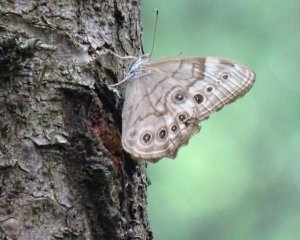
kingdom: Animalia
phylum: Arthropoda
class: Insecta
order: Lepidoptera
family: Nymphalidae
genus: Lethe
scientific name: Lethe anthedon
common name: Northern Pearly-Eye
